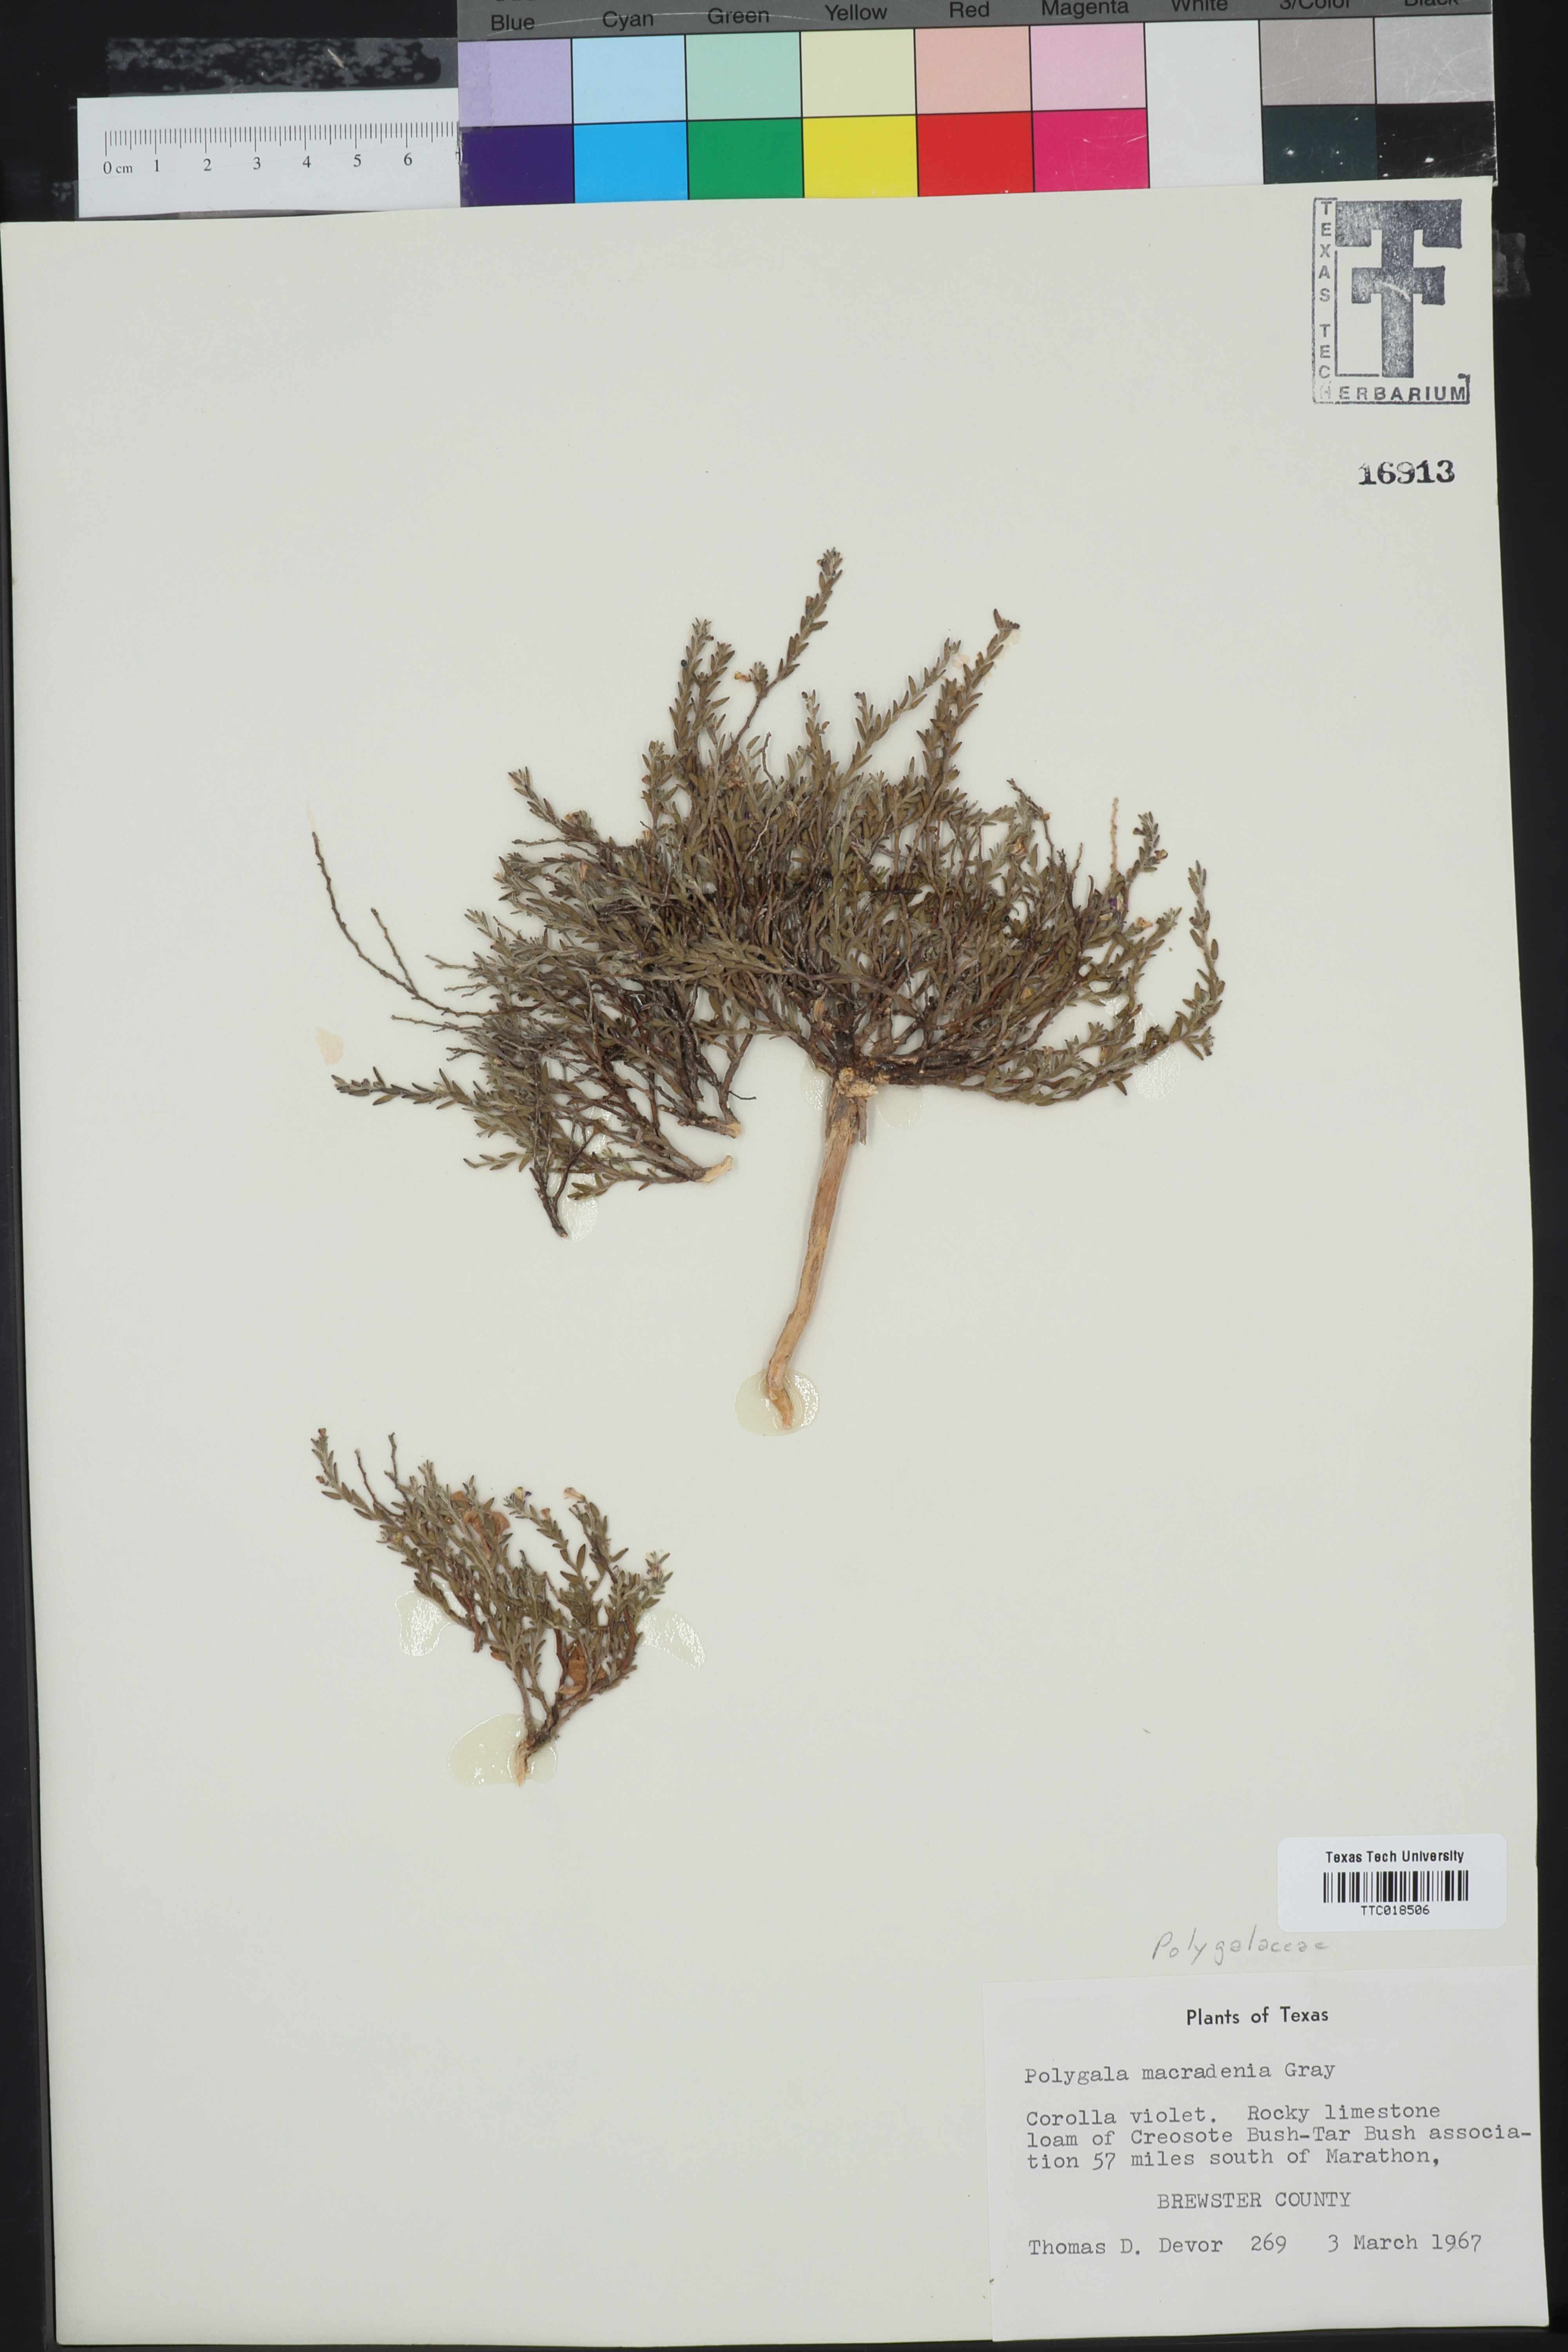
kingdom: Plantae
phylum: Tracheophyta
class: Magnoliopsida
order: Fabales
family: Polygalaceae
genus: Hebecarpa
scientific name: Hebecarpa macradenia
